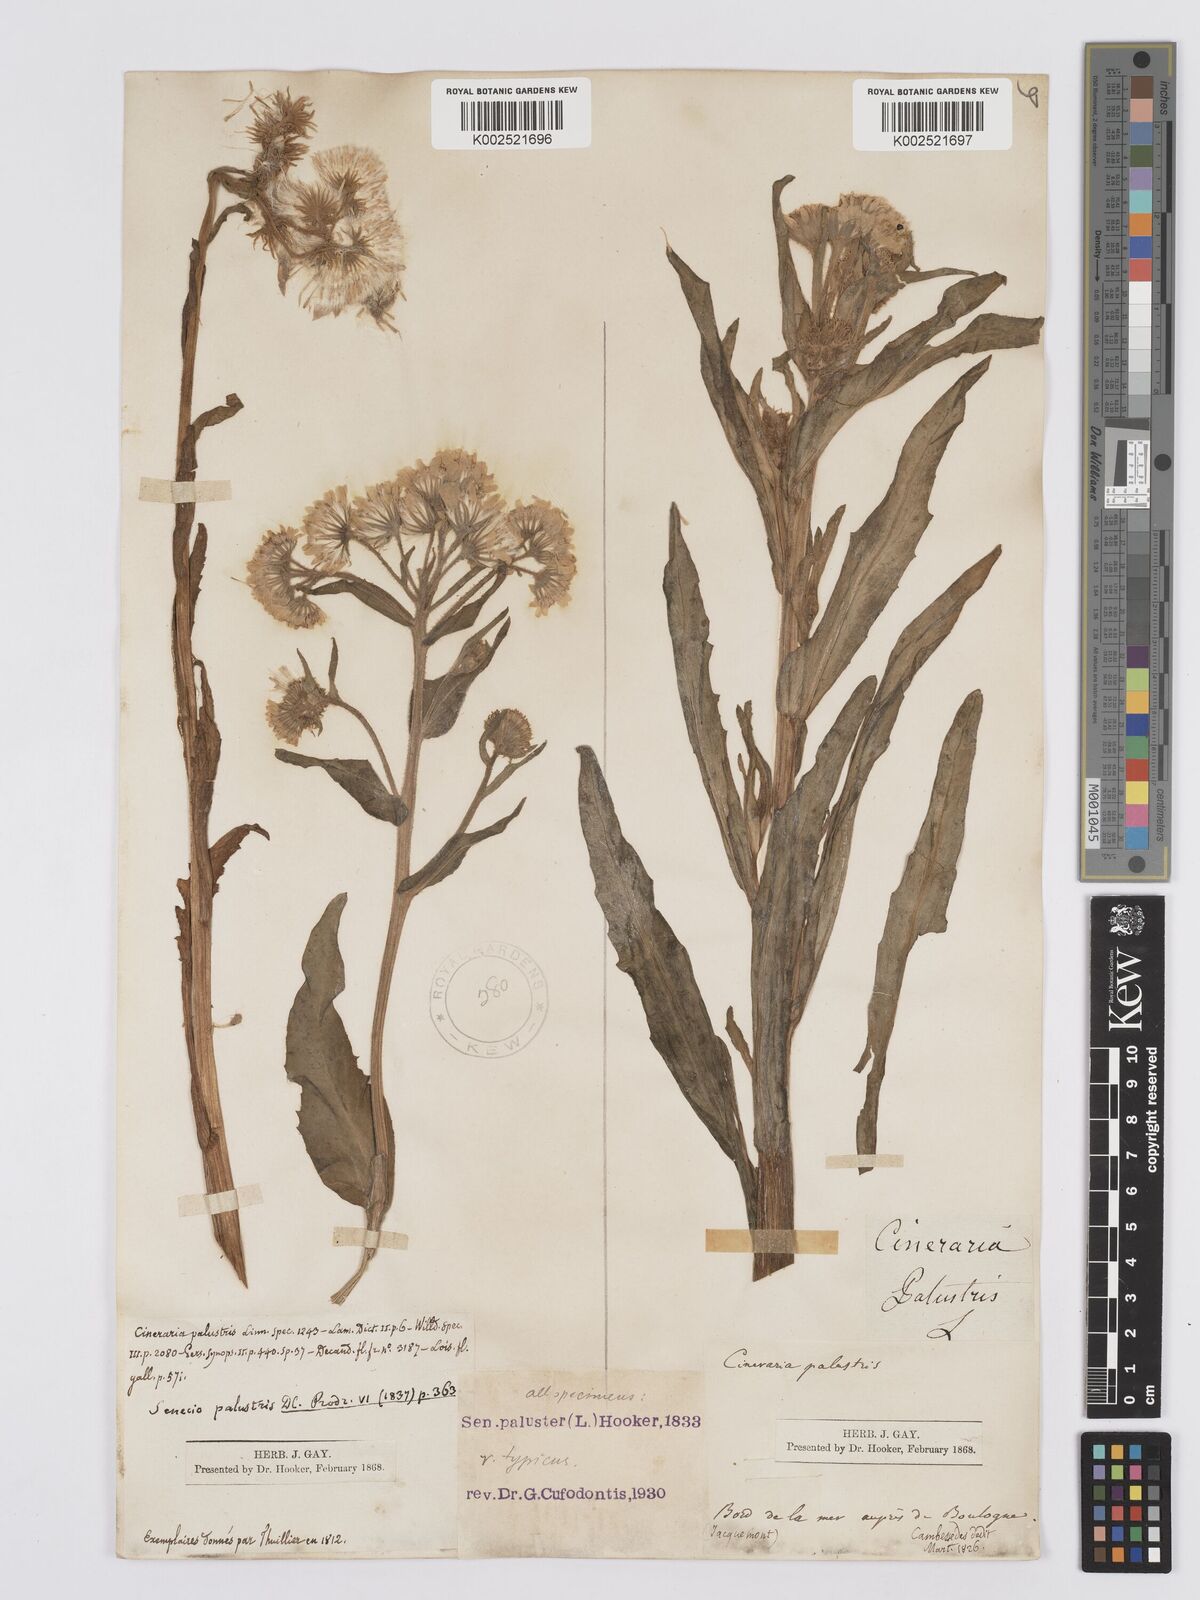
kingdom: Plantae
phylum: Tracheophyta
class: Magnoliopsida
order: Asterales
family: Asteraceae
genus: Tephroseris
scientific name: Tephroseris palustris
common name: Marsh fleawort
